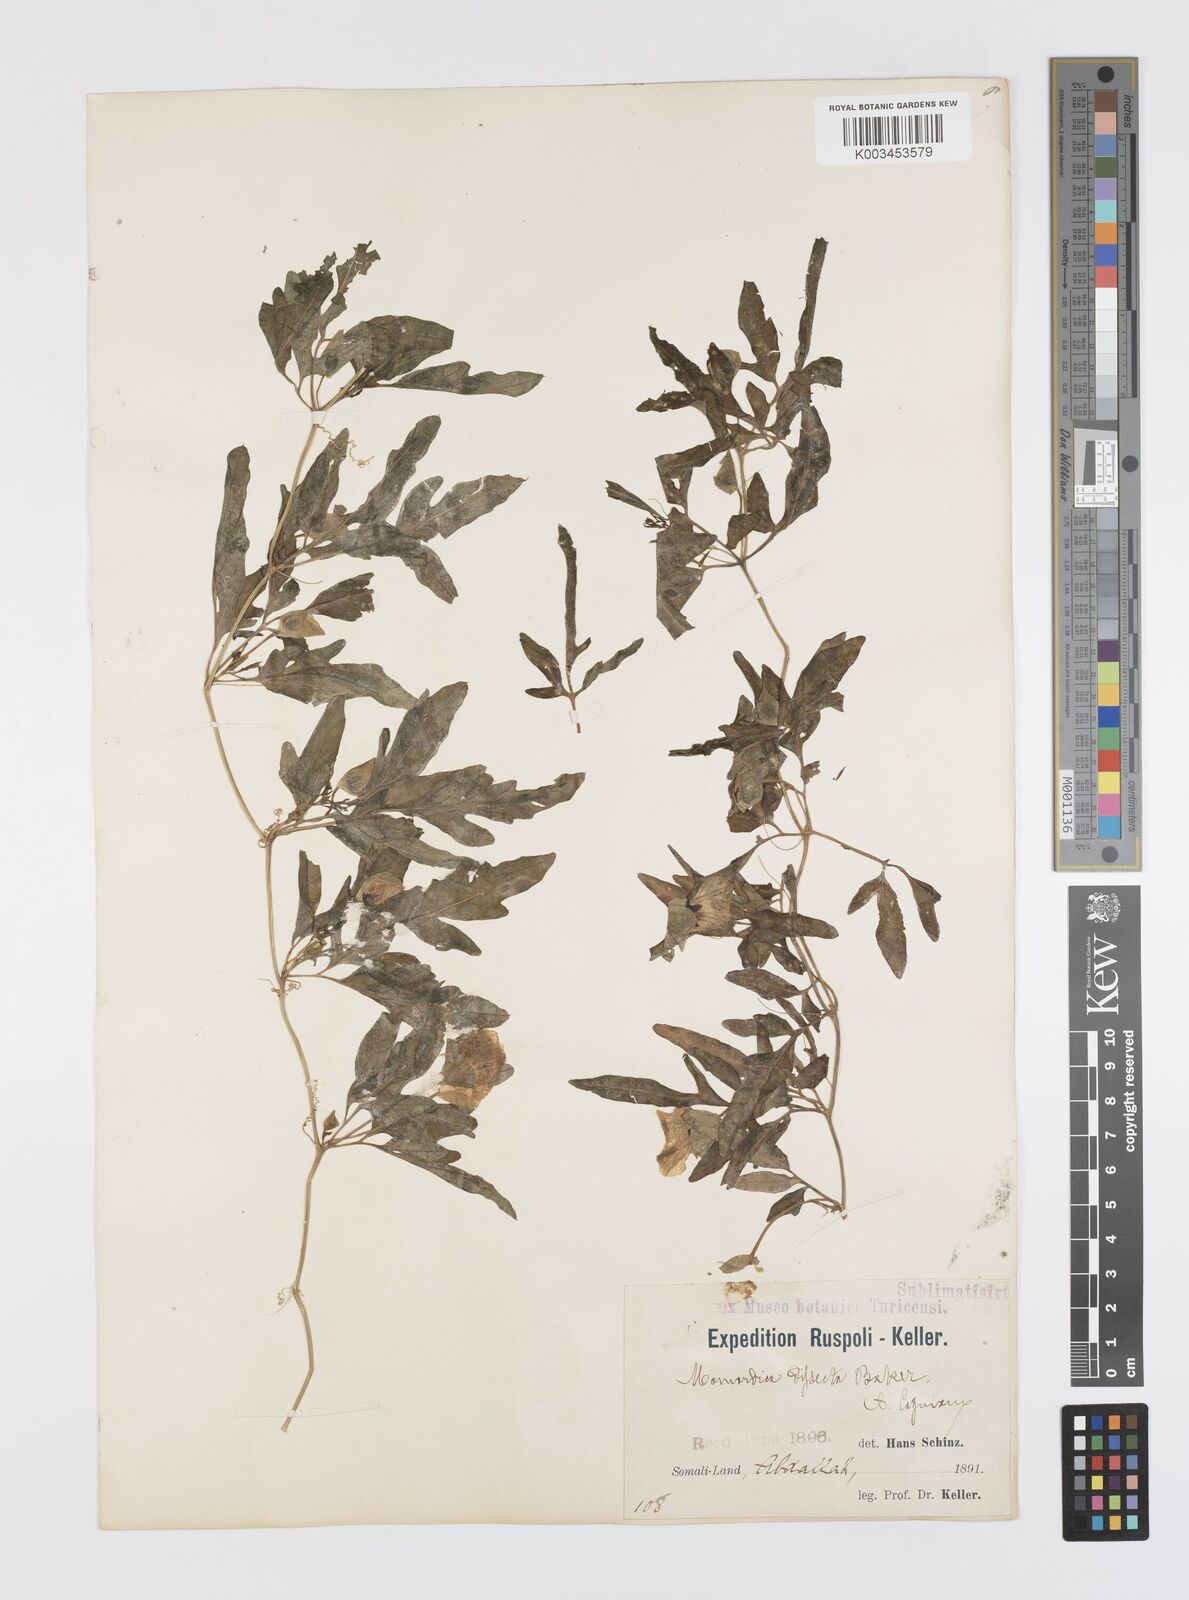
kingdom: Plantae
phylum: Tracheophyta
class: Magnoliopsida
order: Cucurbitales
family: Cucurbitaceae
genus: Momordica
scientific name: Momordica dissecta
